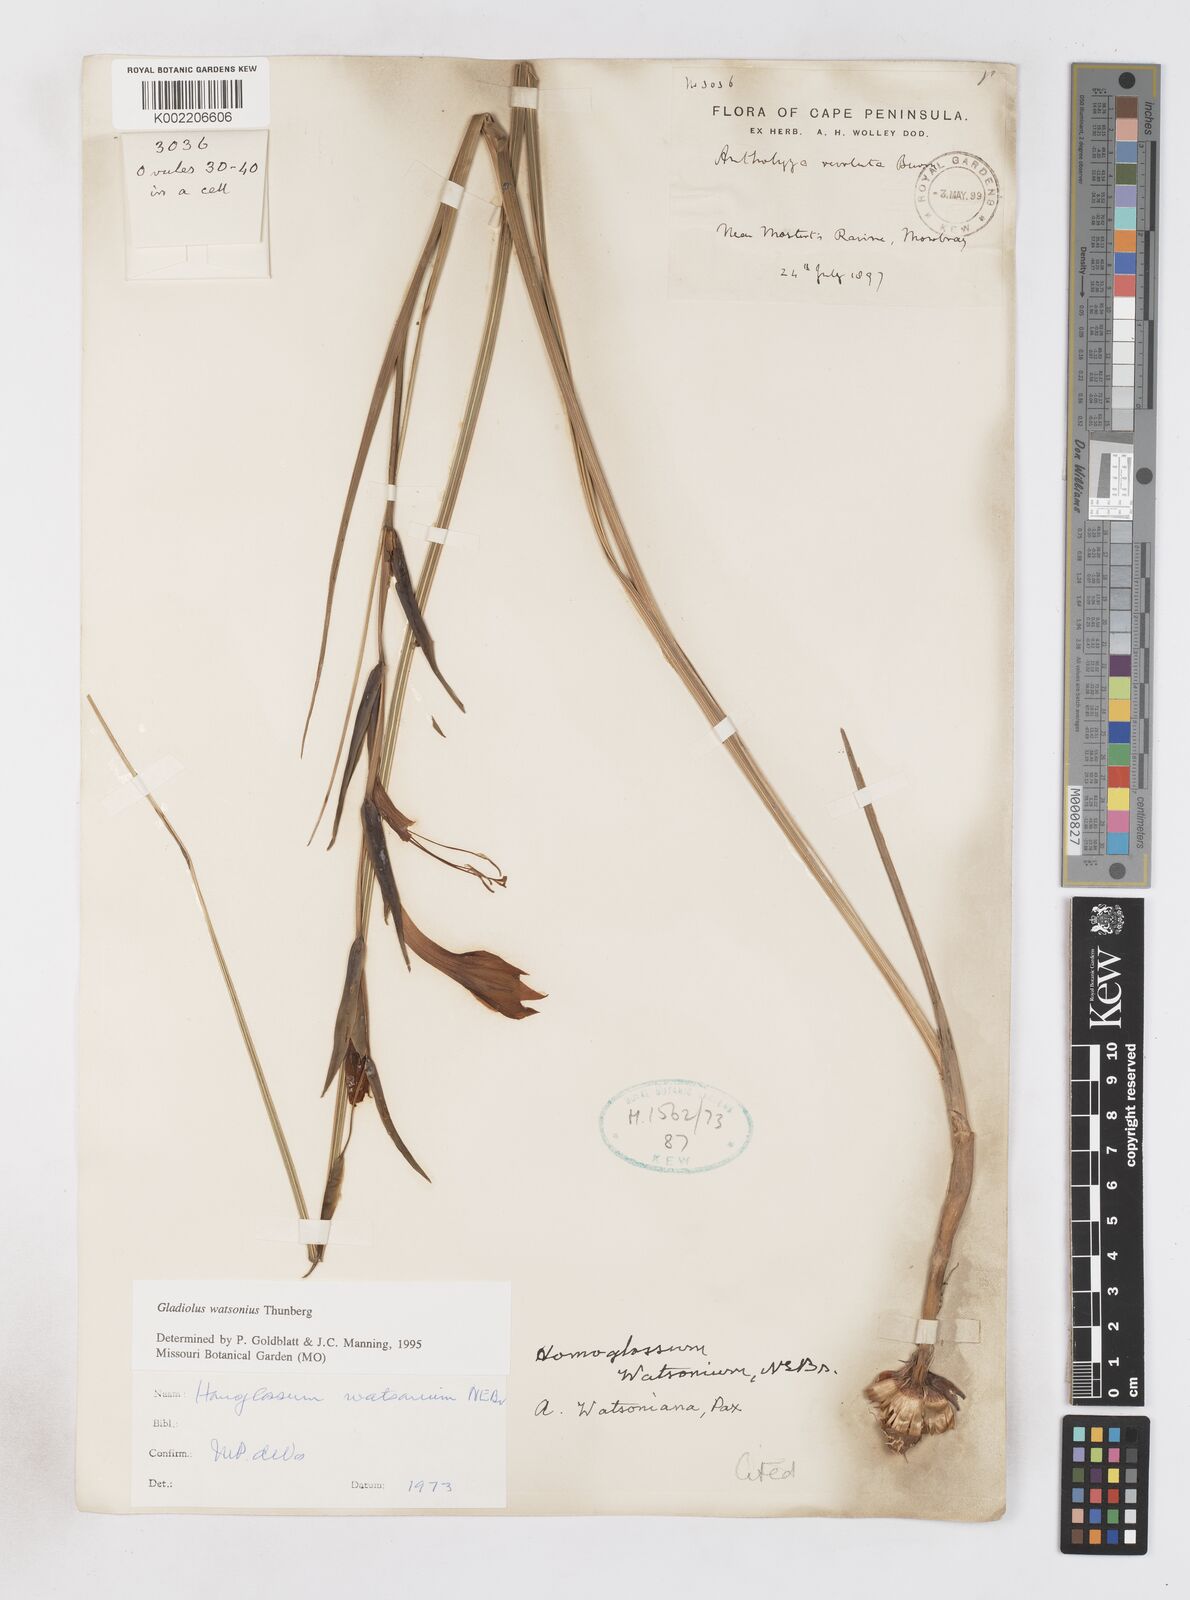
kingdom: Plantae
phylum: Tracheophyta
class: Liliopsida
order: Asparagales
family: Iridaceae
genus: Gladiolus
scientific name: Gladiolus watsonius
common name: Red afrikaner
